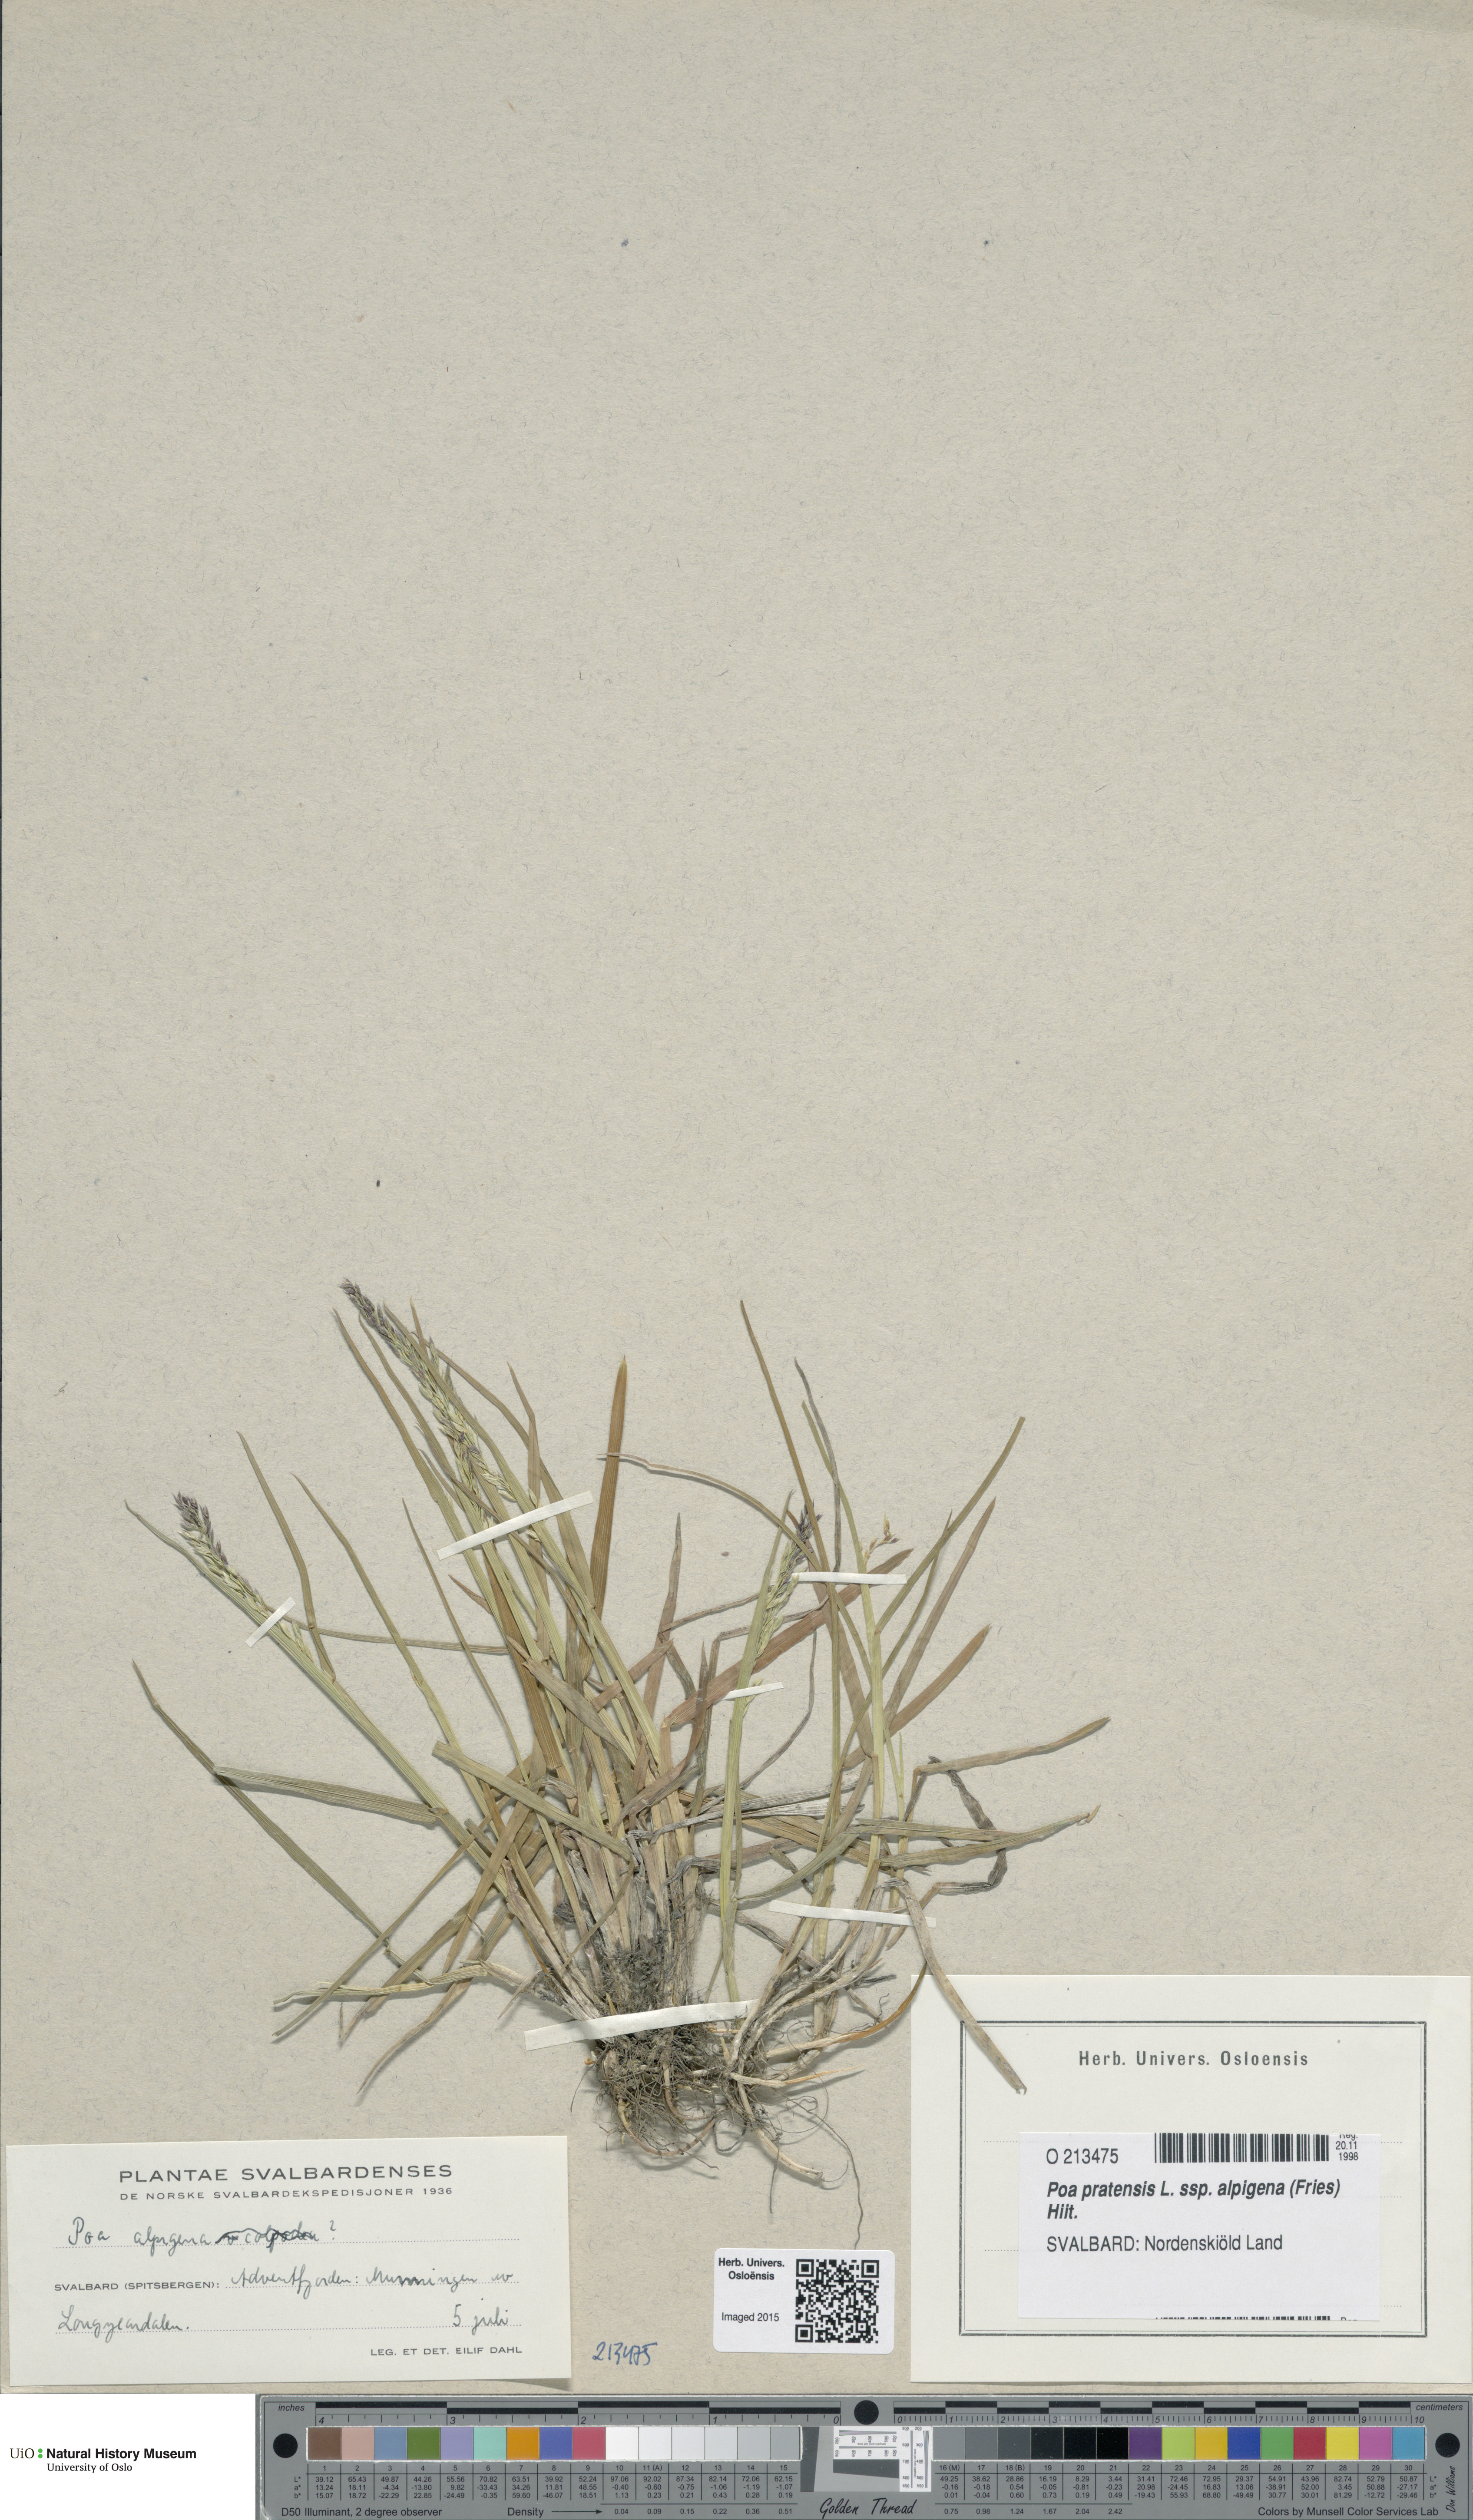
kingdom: Plantae
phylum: Tracheophyta
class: Liliopsida
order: Poales
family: Poaceae
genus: Poa
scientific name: Poa alpigena
